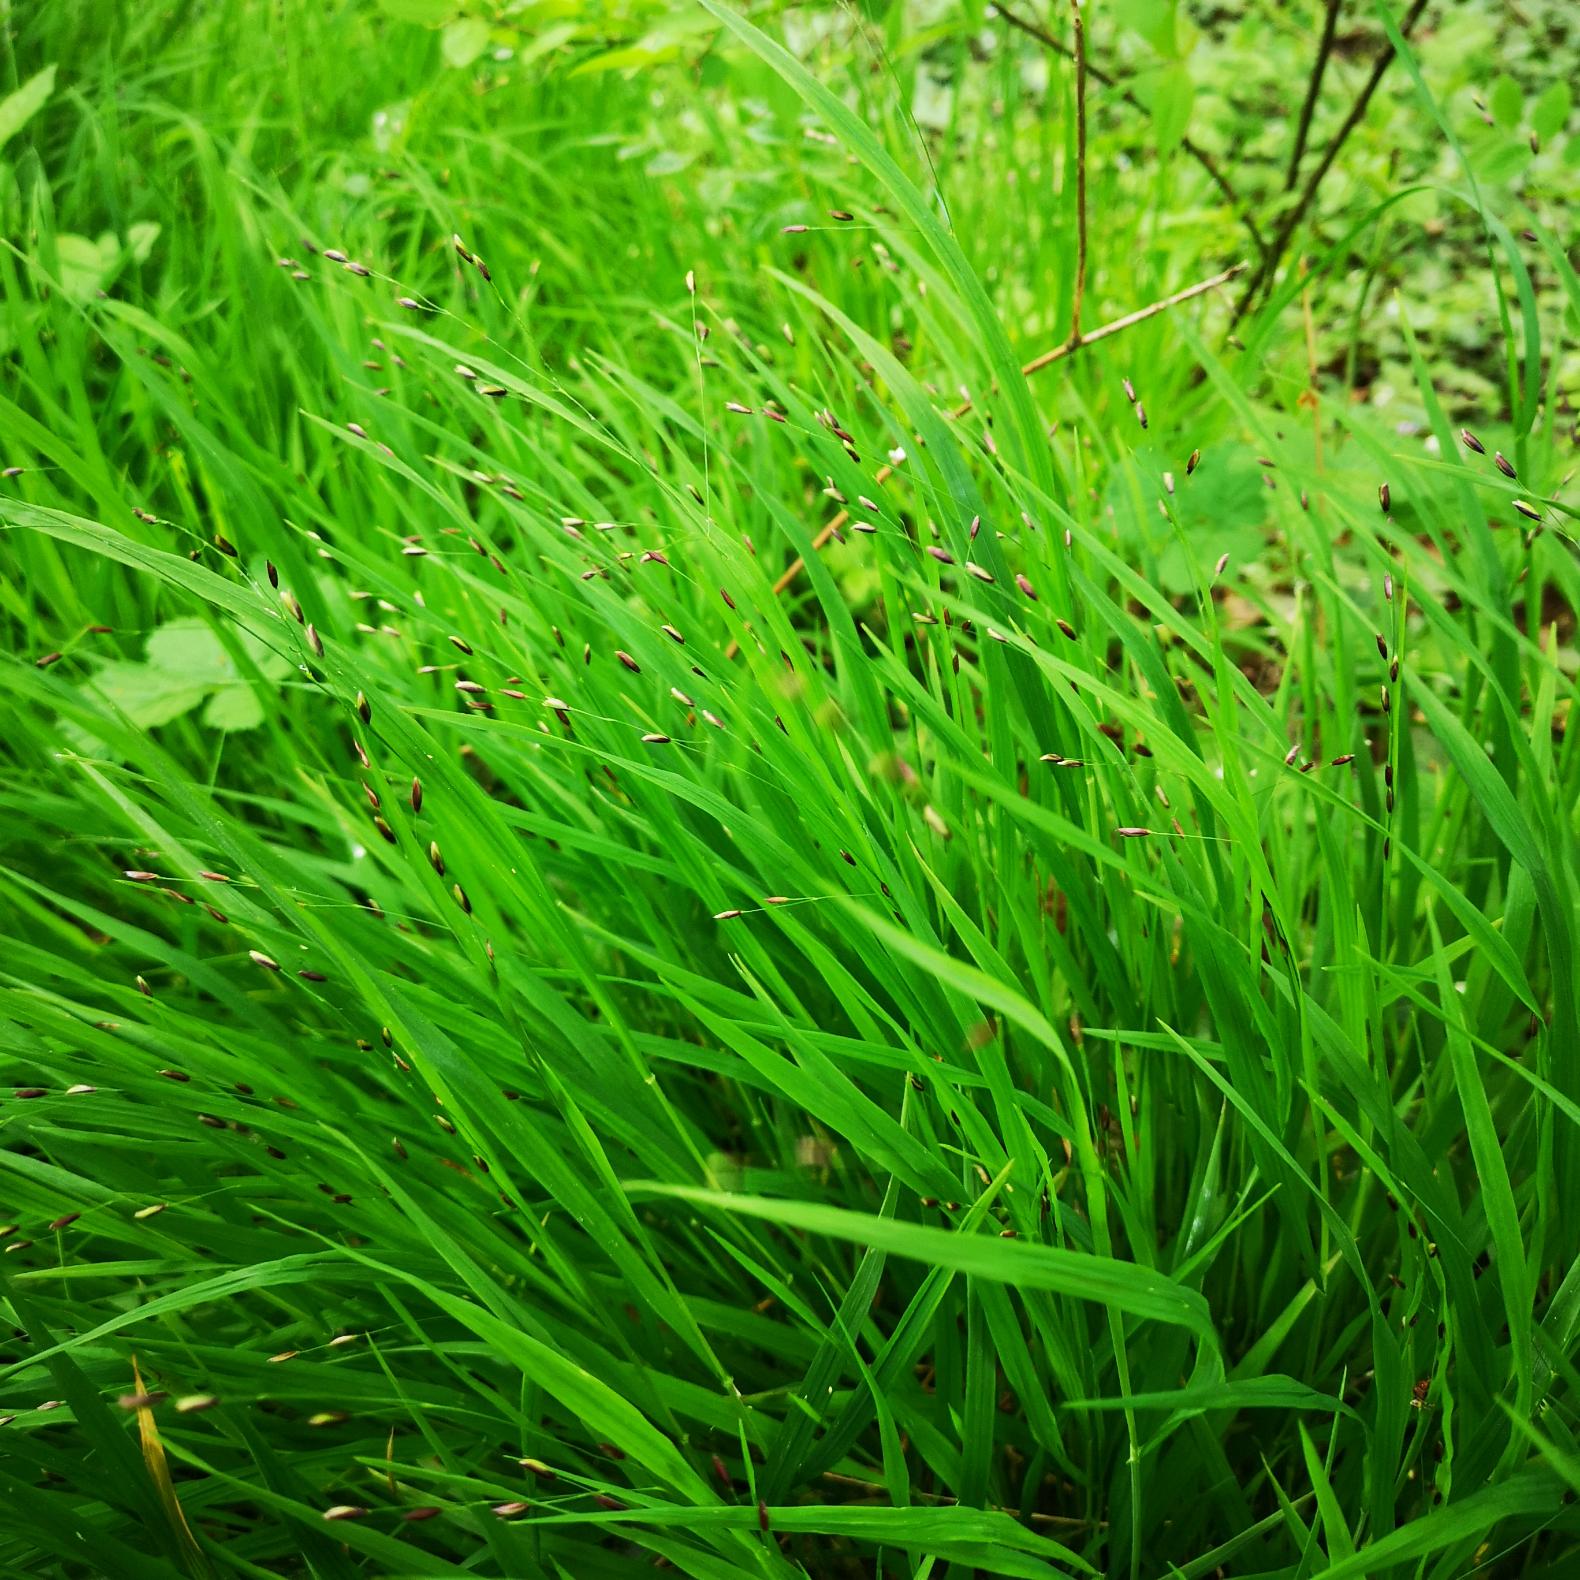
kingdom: Plantae
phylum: Tracheophyta
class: Liliopsida
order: Poales
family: Poaceae
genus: Melica
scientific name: Melica uniflora
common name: Enblomstret flitteraks
